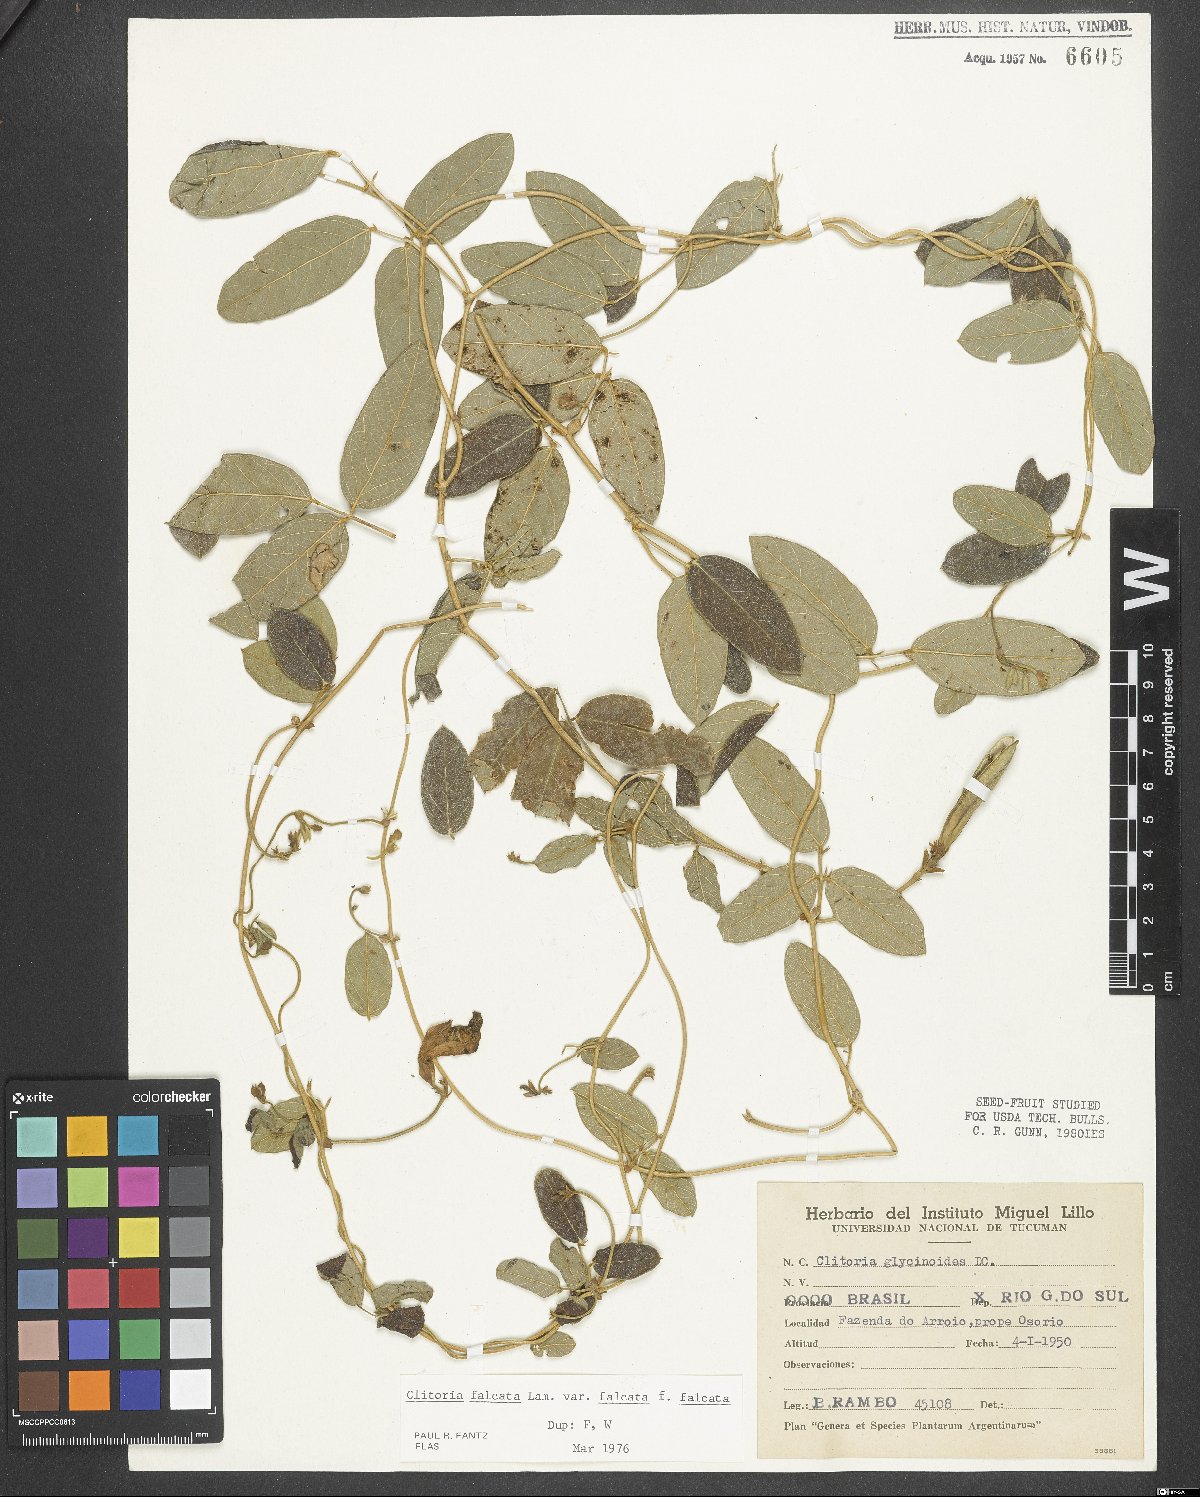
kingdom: Plantae
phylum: Tracheophyta
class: Magnoliopsida
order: Fabales
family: Fabaceae
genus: Clitoria
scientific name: Clitoria falcata
